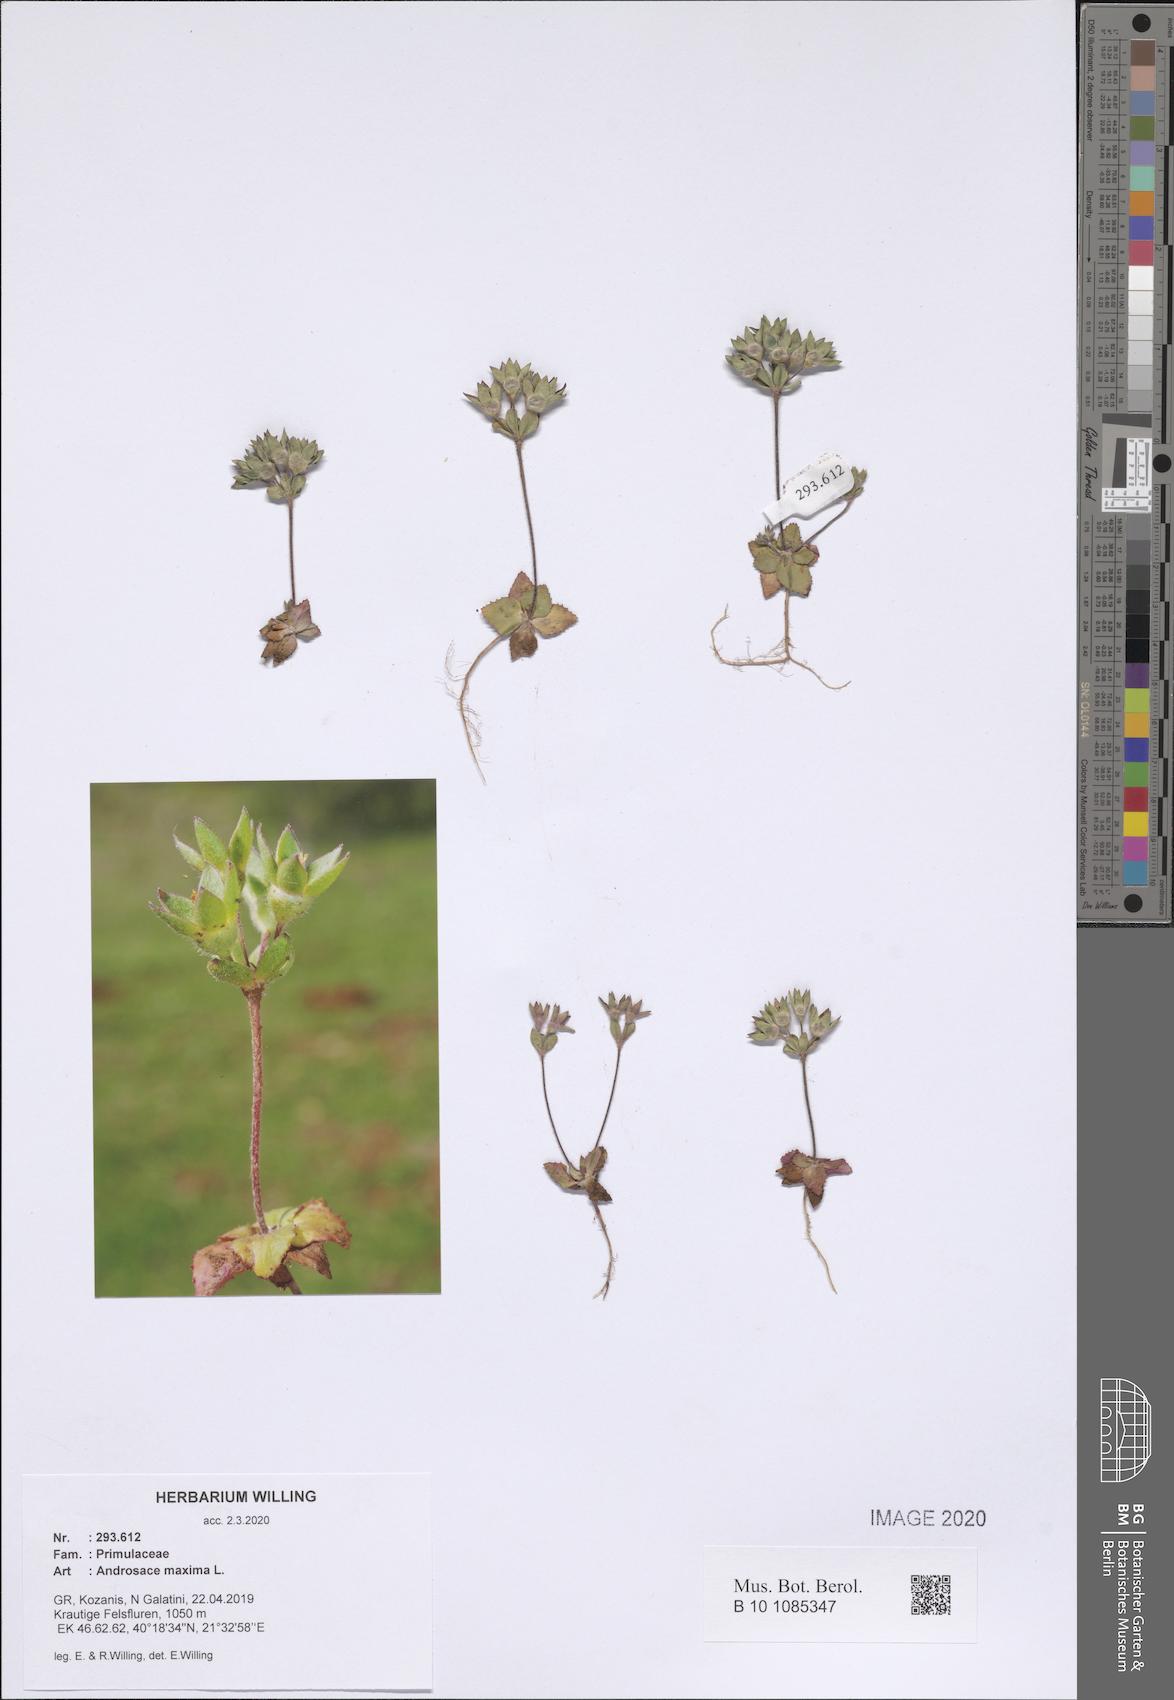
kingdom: Plantae
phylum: Tracheophyta
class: Magnoliopsida
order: Ericales
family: Primulaceae
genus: Androsace
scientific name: Androsace maxima
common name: Annual androsace
